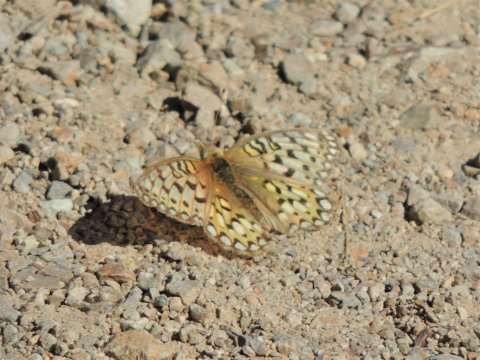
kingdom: Animalia
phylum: Arthropoda
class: Insecta
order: Lepidoptera
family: Nymphalidae
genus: Speyeria
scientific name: Speyeria callippe
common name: Callippe Fritillary
